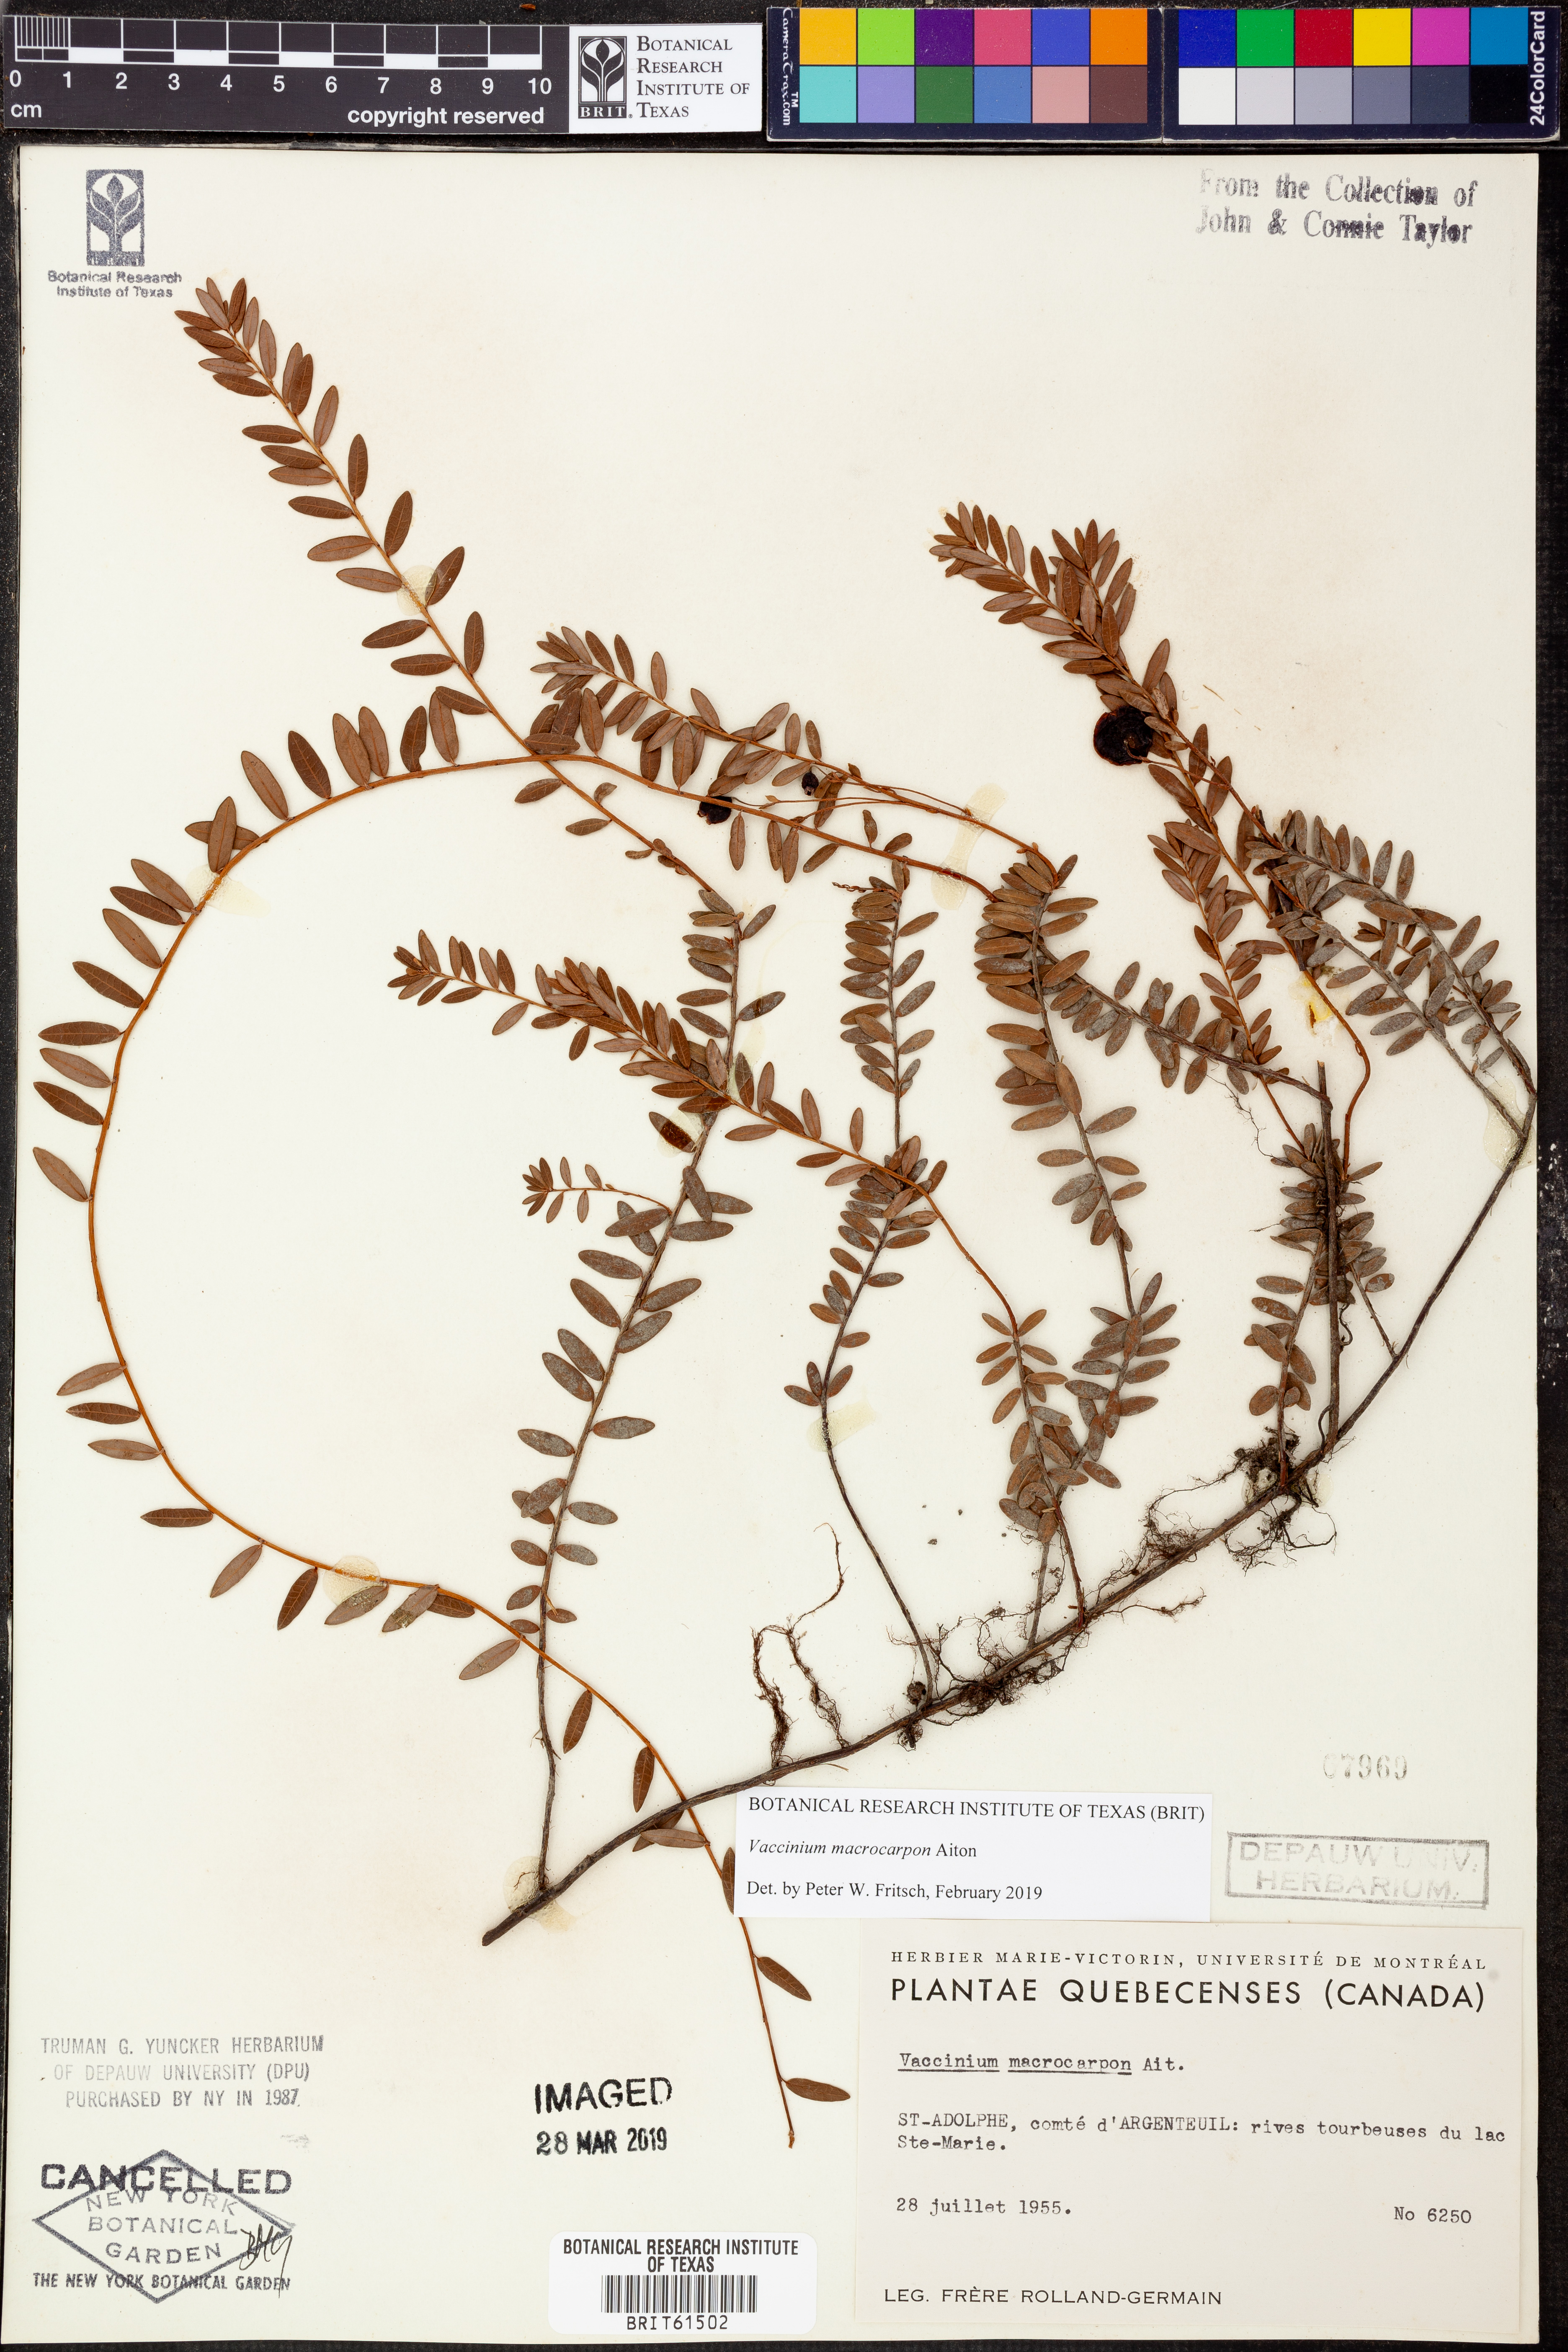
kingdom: Plantae
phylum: Tracheophyta
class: Magnoliopsida
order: Ericales
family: Ericaceae
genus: Vaccinium
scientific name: Vaccinium macrocarpon
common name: American cranberry
